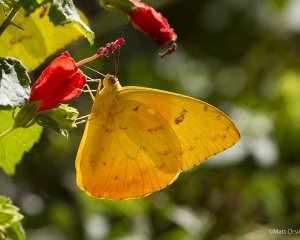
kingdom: Animalia
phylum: Arthropoda
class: Insecta
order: Lepidoptera
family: Pieridae
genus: Phoebis
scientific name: Phoebis philea
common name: Orange-barred Sulphur
